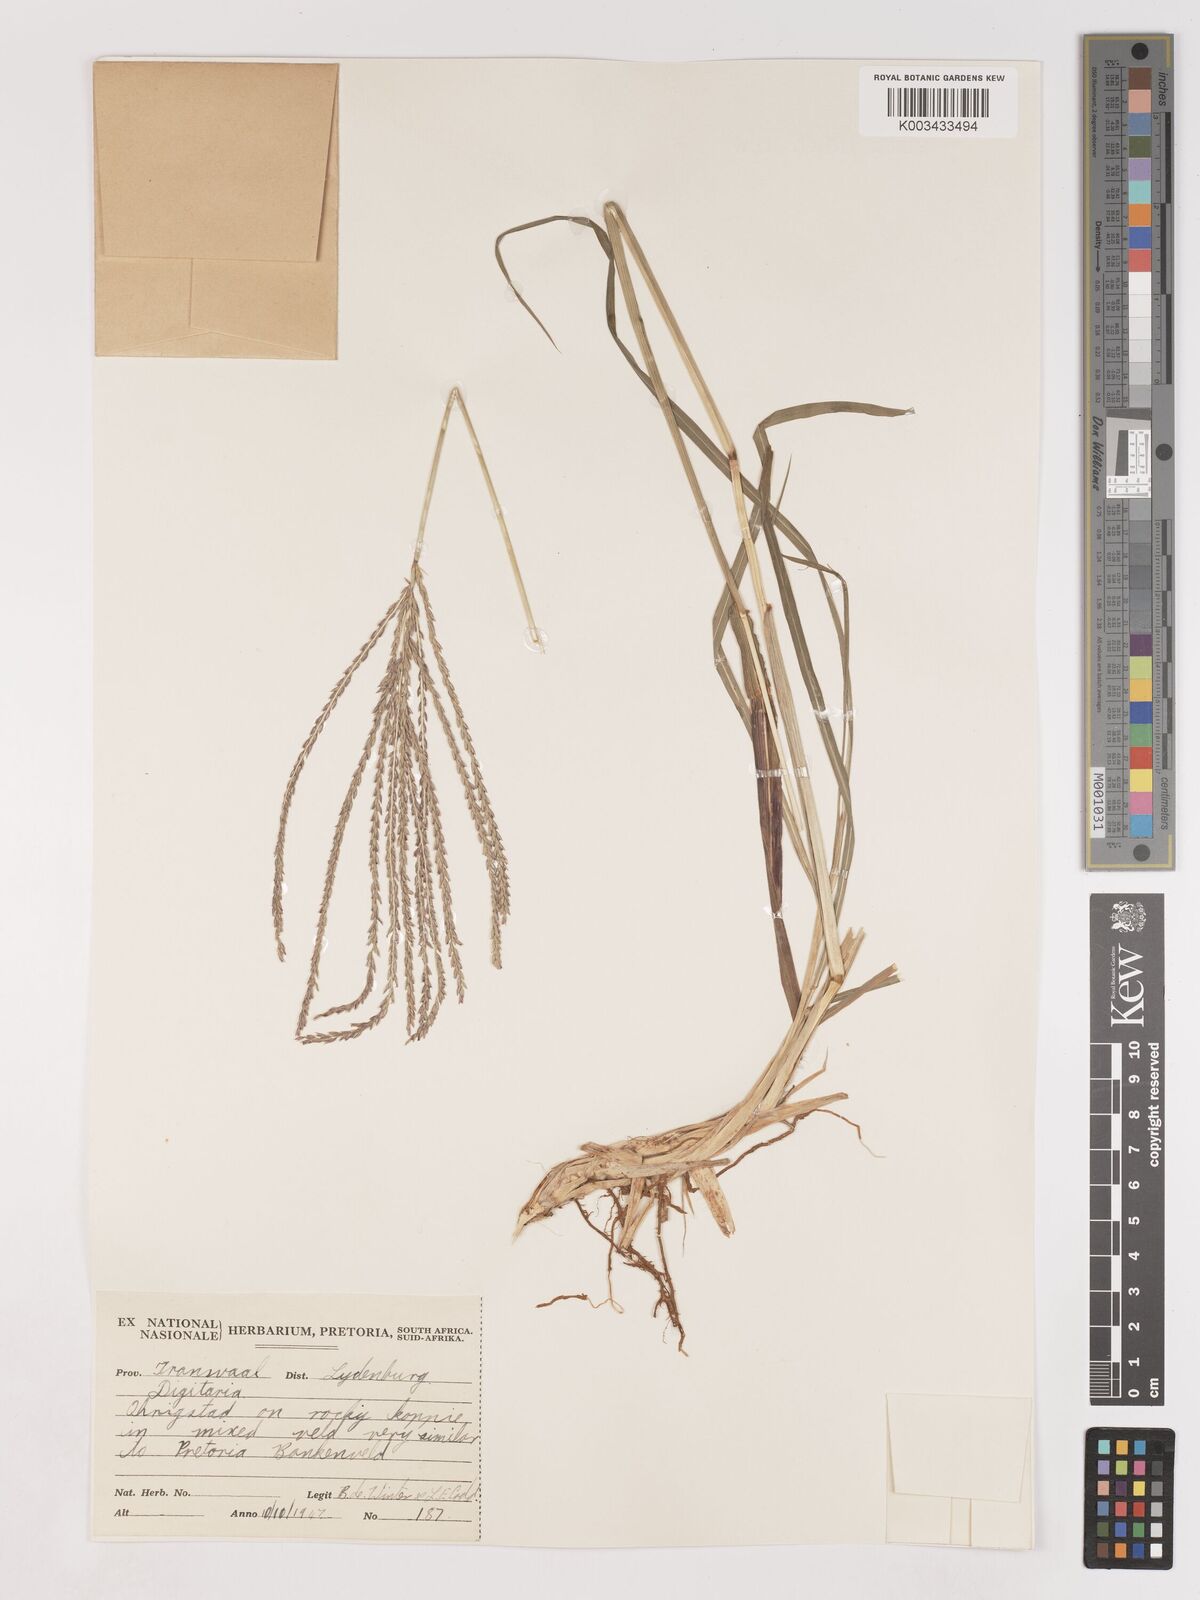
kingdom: Plantae
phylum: Tracheophyta
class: Liliopsida
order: Poales
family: Poaceae
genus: Digitaria
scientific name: Digitaria eriantha
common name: Digitgrass
